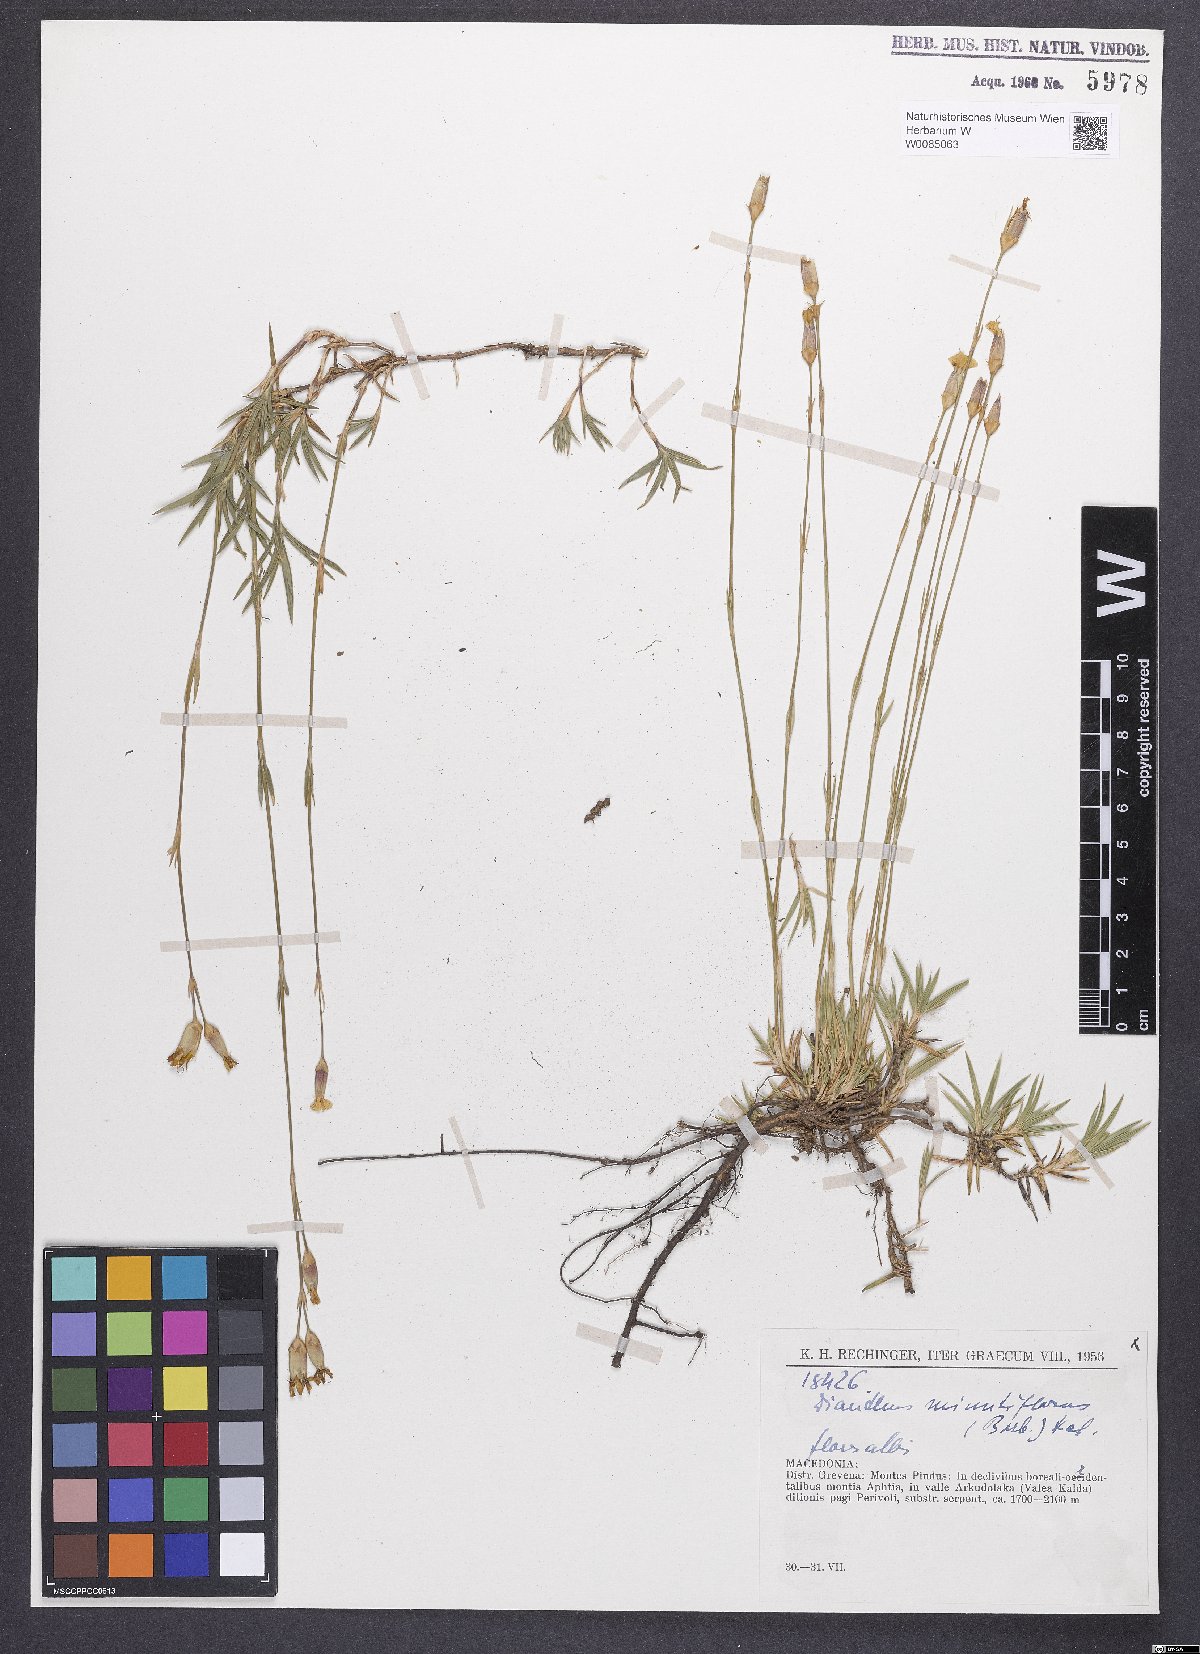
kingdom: Plantae
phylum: Tracheophyta
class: Magnoliopsida
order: Caryophyllales
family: Caryophyllaceae
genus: Dianthus
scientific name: Dianthus integer
